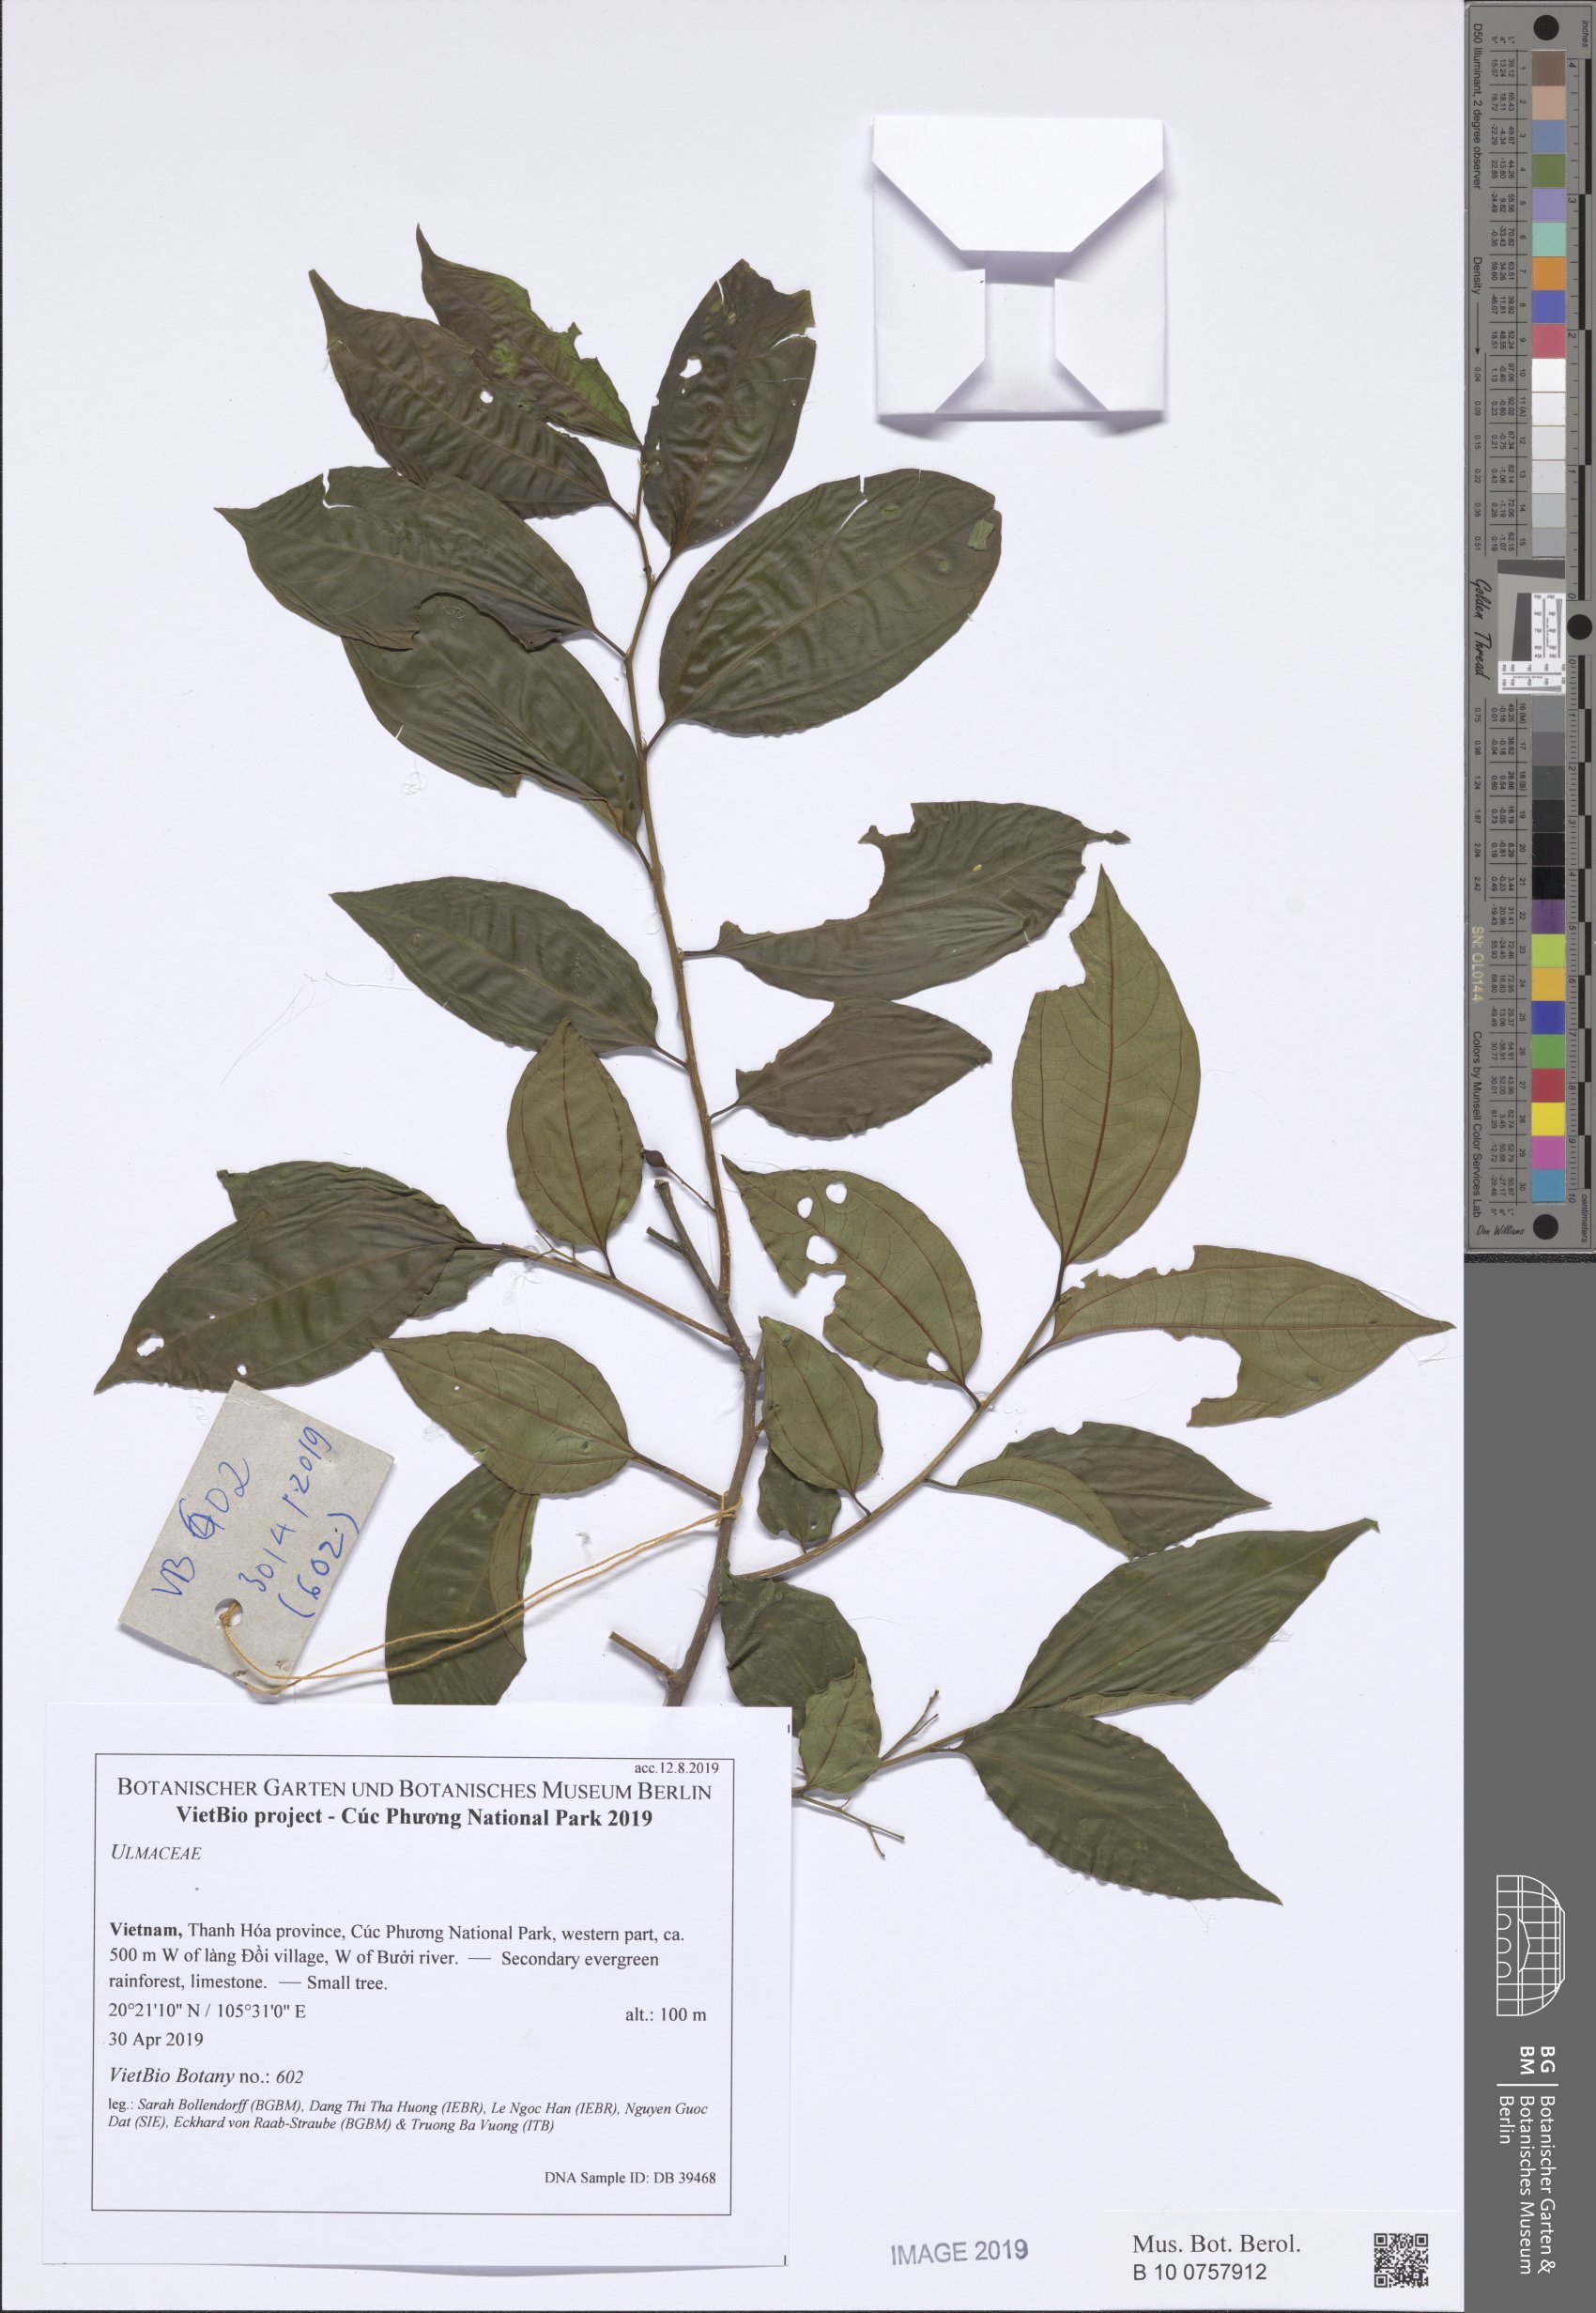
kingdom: Plantae
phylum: Tracheophyta
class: Magnoliopsida
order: Rosales
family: Cannabaceae
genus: Celtis
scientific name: Celtis timorensis
